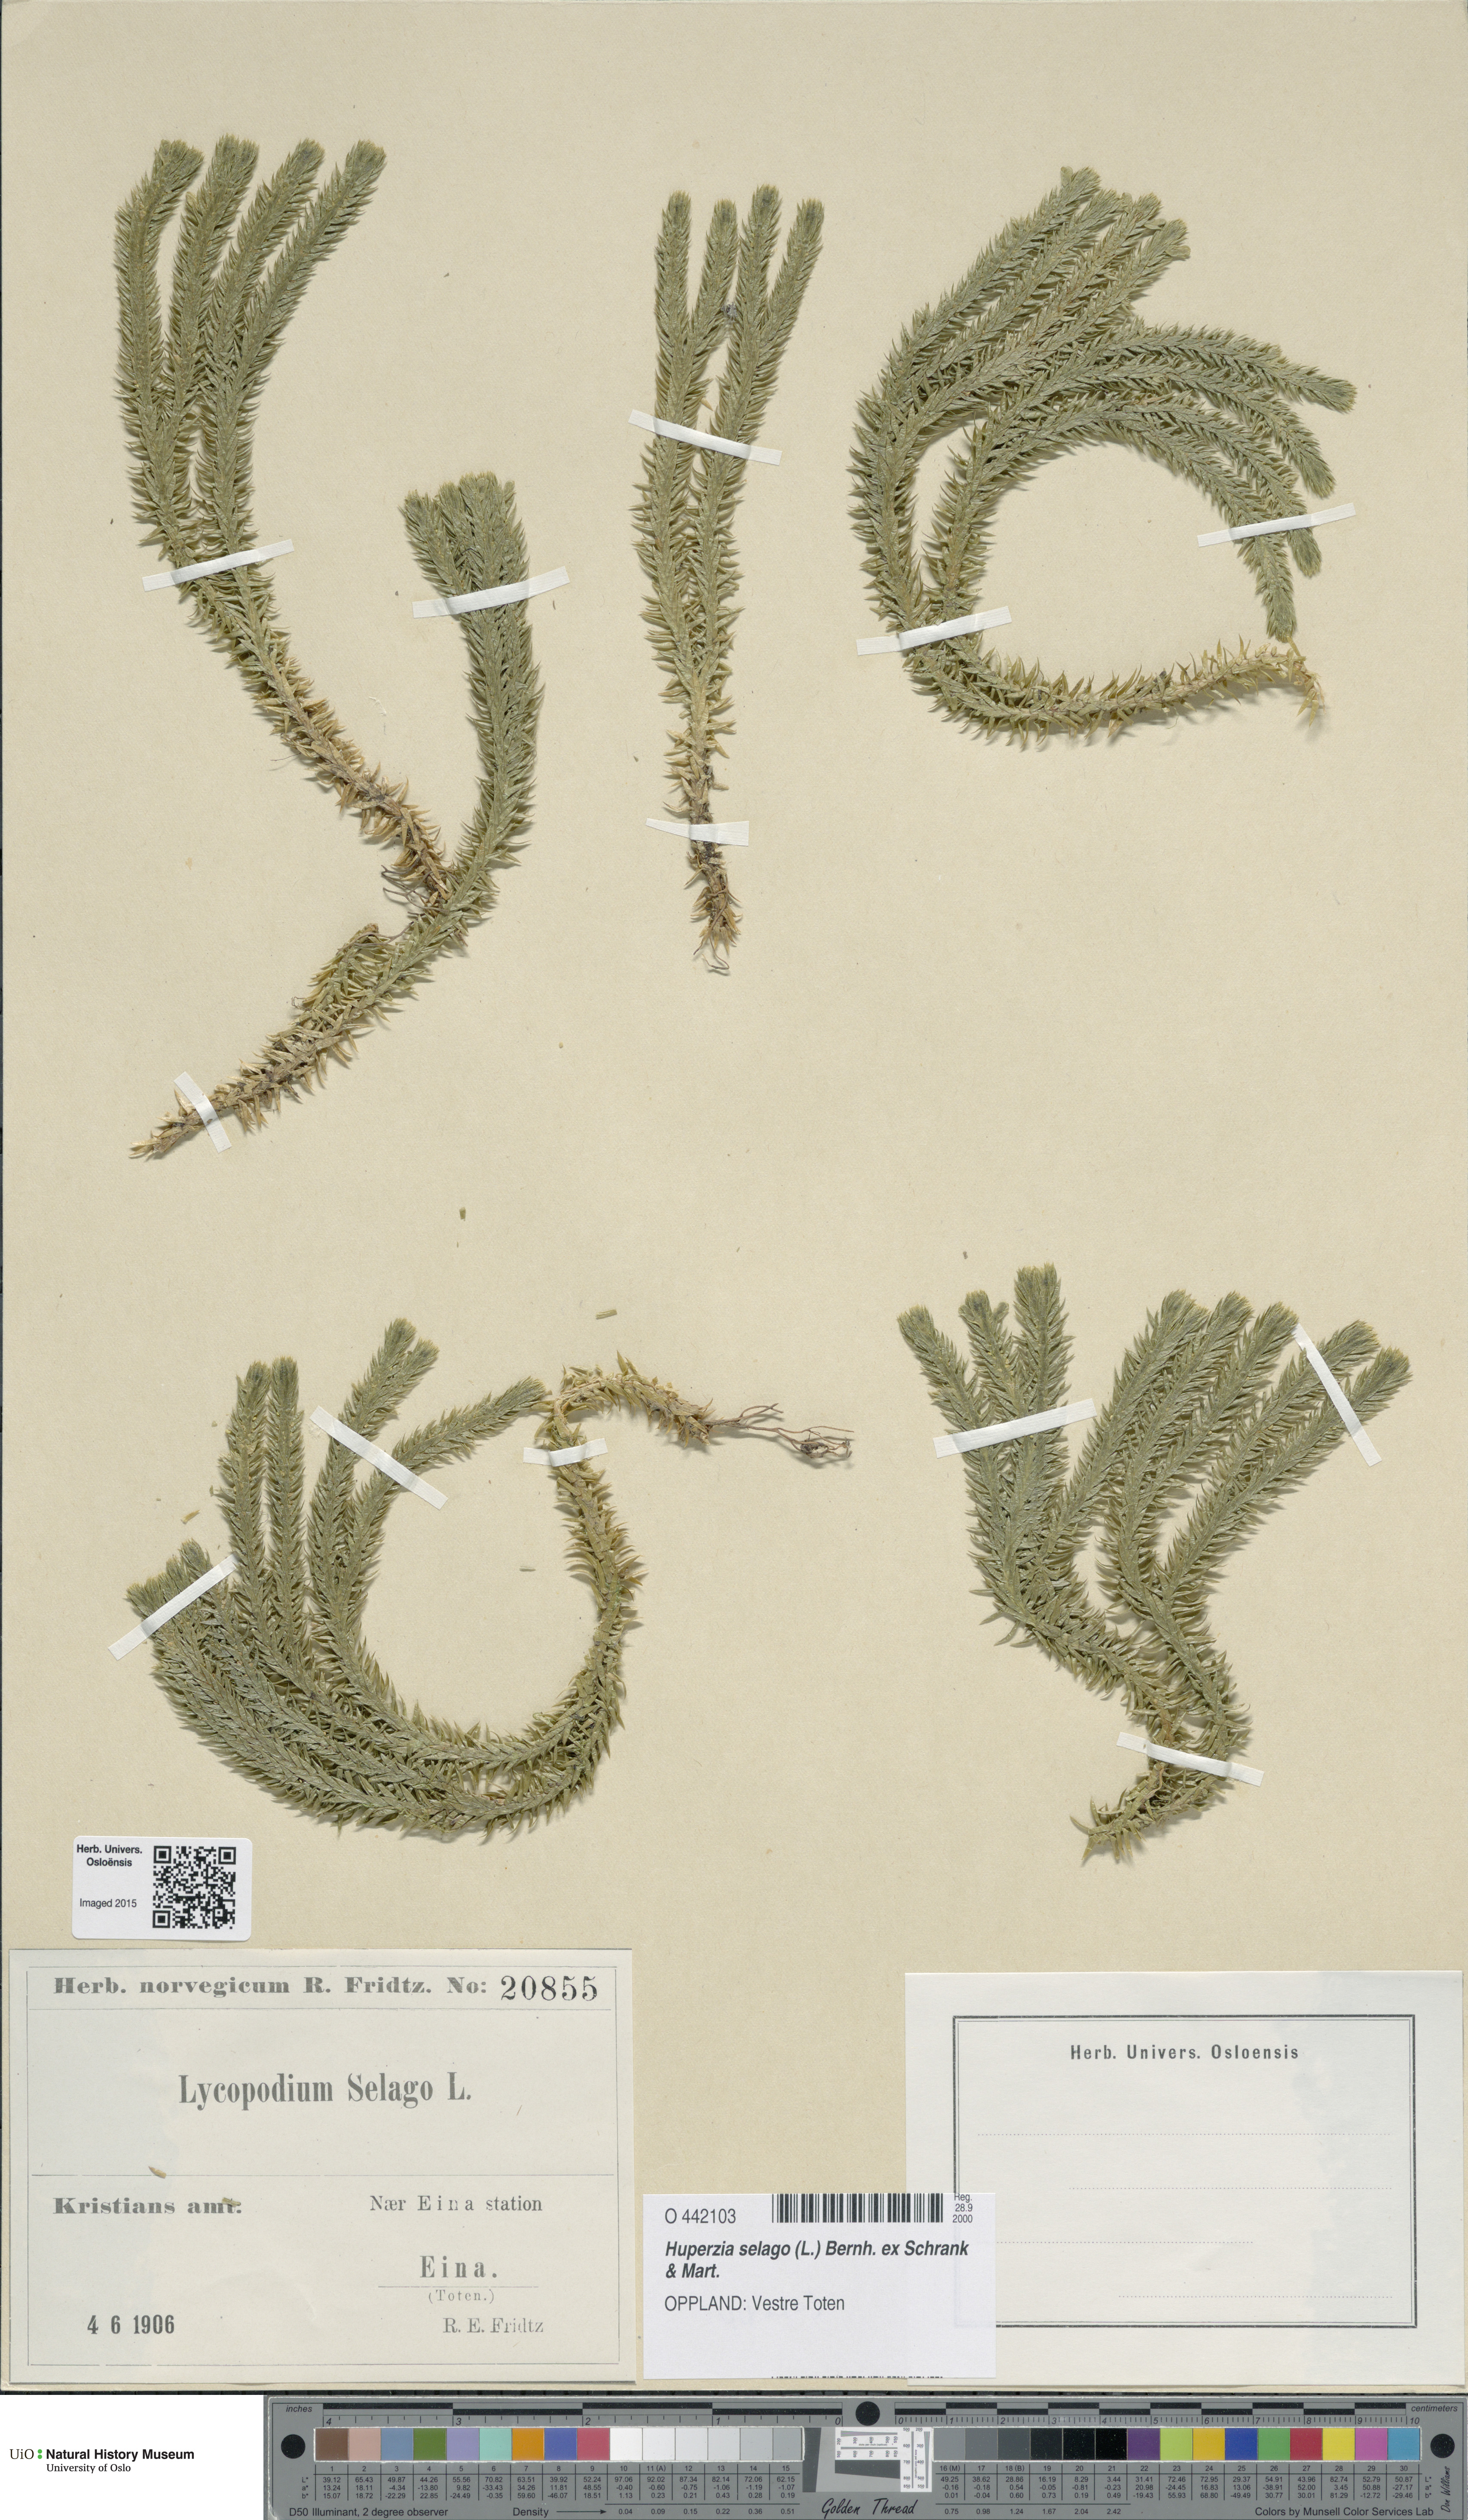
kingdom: Plantae
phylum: Tracheophyta
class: Lycopodiopsida
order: Lycopodiales
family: Lycopodiaceae
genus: Huperzia
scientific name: Huperzia selago
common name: Northern firmoss
